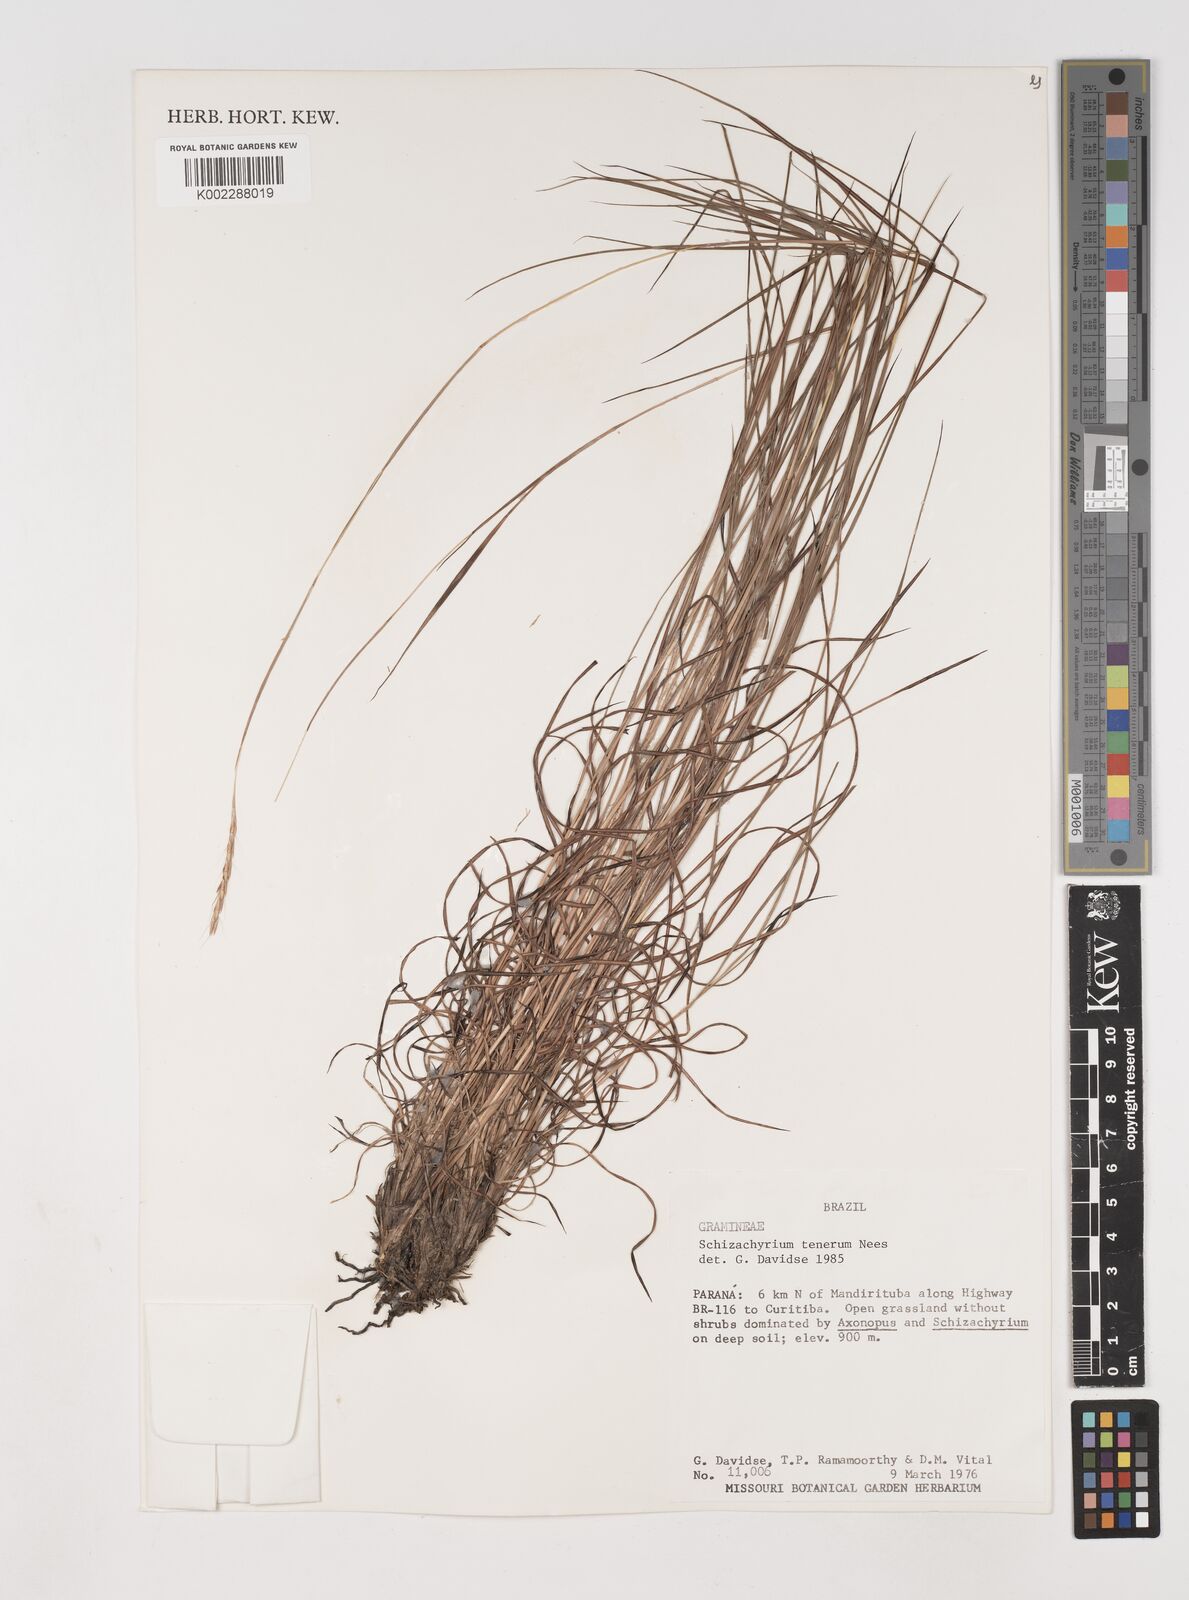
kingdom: Plantae
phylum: Tracheophyta
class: Liliopsida
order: Poales
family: Poaceae
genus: Andropogon
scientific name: Andropogon tener
